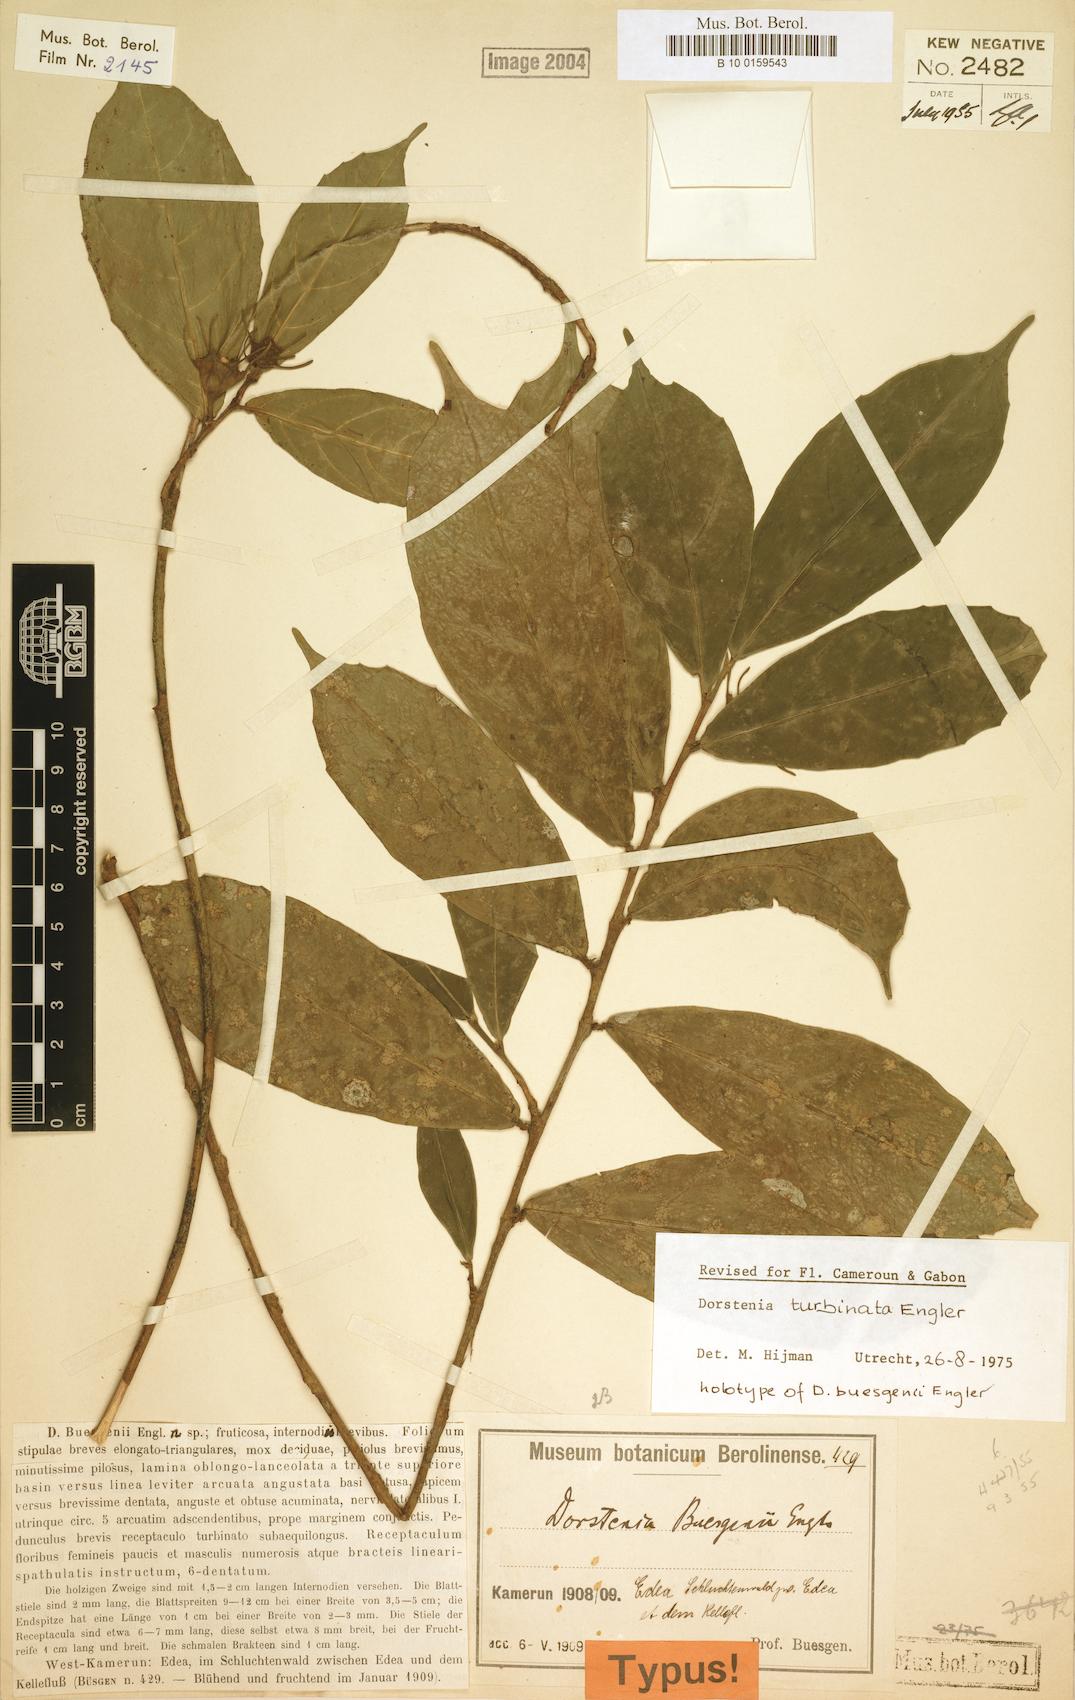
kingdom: Plantae
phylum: Tracheophyta
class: Magnoliopsida
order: Rosales
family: Moraceae
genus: Hijmania
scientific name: Hijmania turbinata
